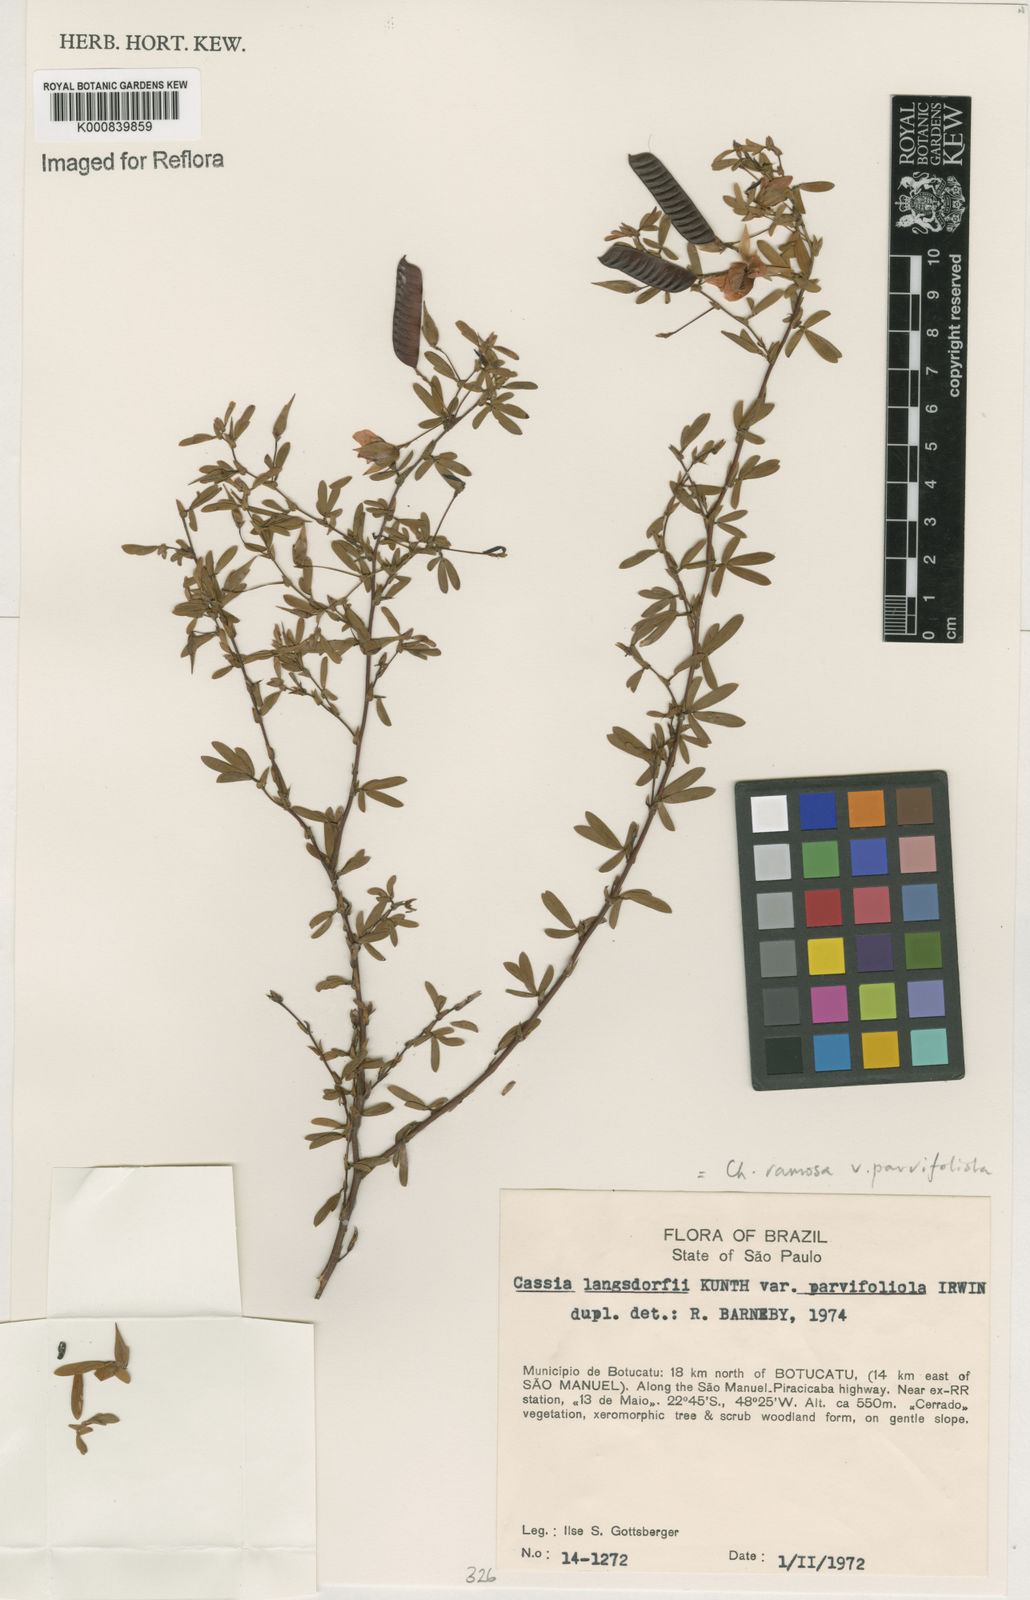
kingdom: Plantae
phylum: Tracheophyta
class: Magnoliopsida
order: Fabales
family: Fabaceae
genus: Chamaecrista
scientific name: Chamaecrista ramosa
